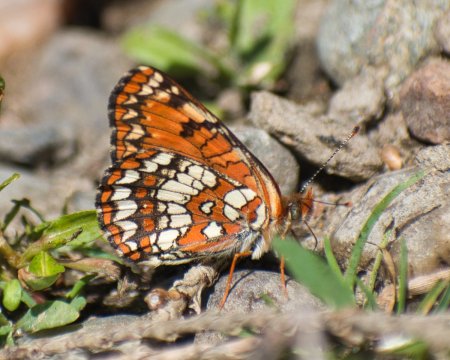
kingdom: Animalia
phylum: Arthropoda
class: Insecta
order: Lepidoptera
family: Nymphalidae
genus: Chlosyne
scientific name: Chlosyne palla
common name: Northern Checkerspot
